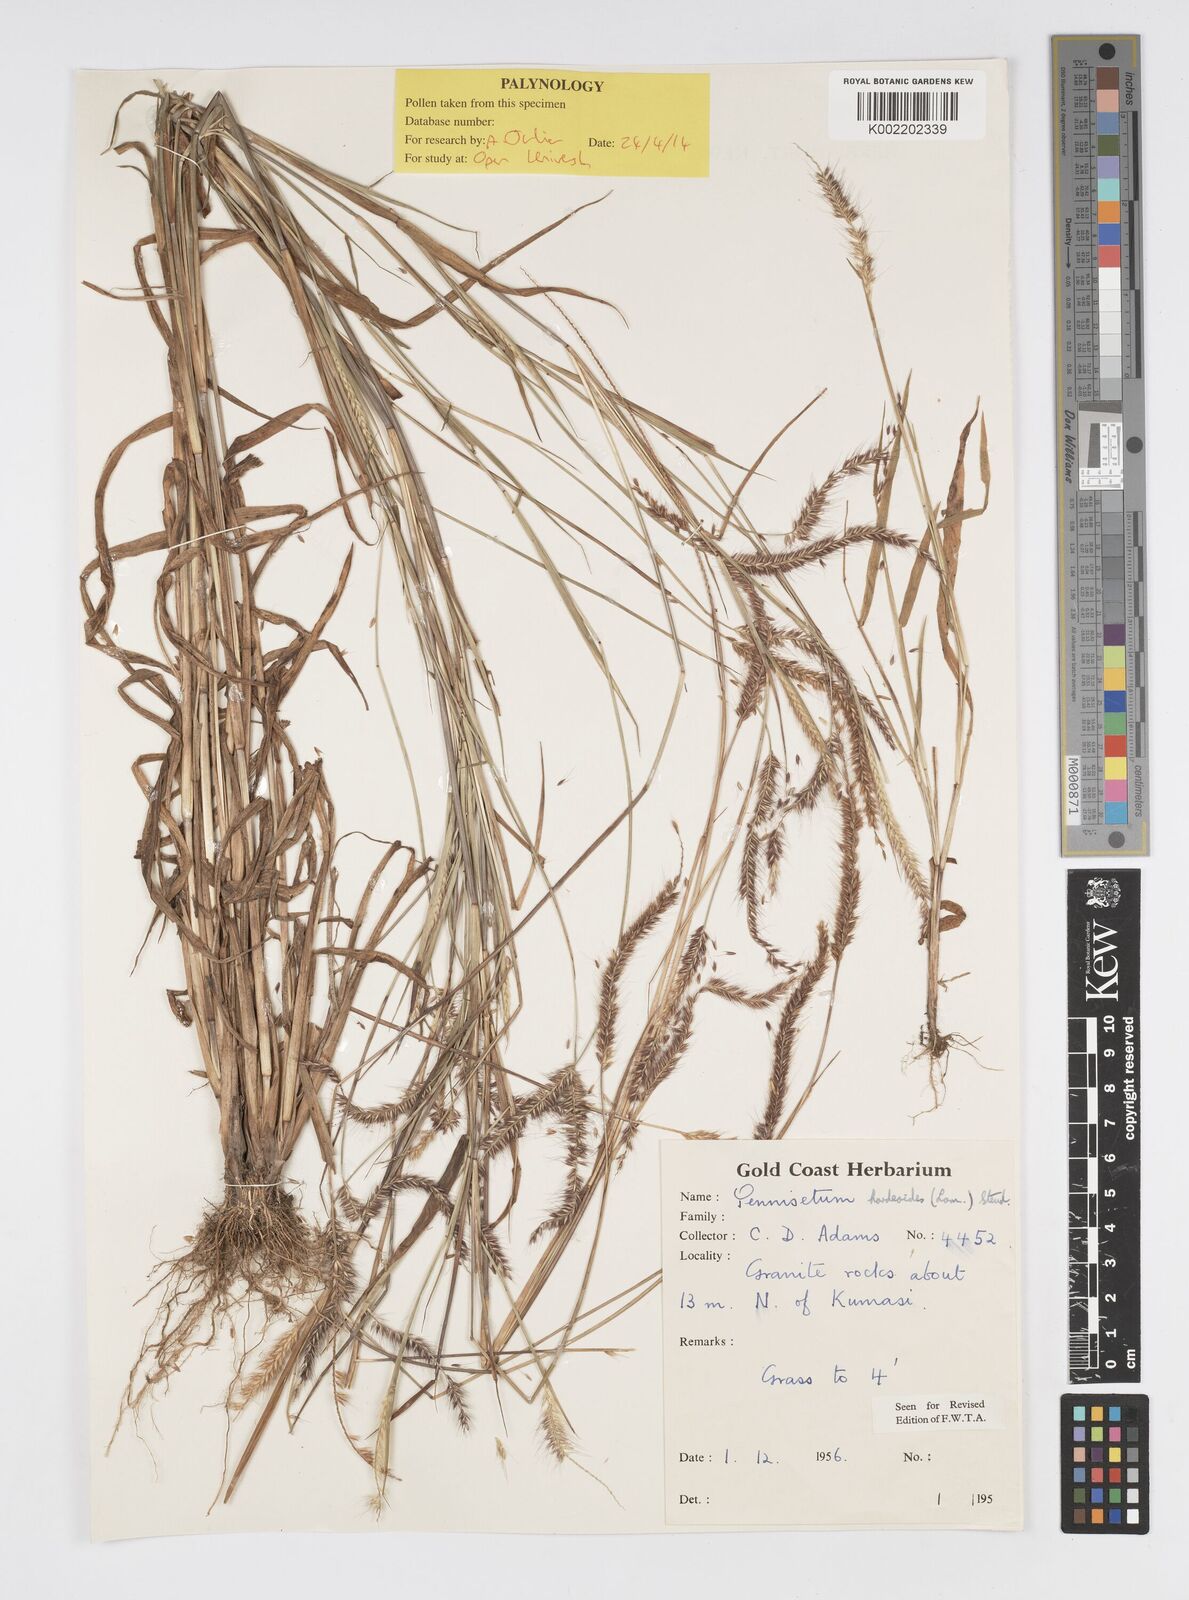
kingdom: Plantae
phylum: Tracheophyta
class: Liliopsida
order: Poales
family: Poaceae
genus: Cenchrus
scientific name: Cenchrus hordeoides
